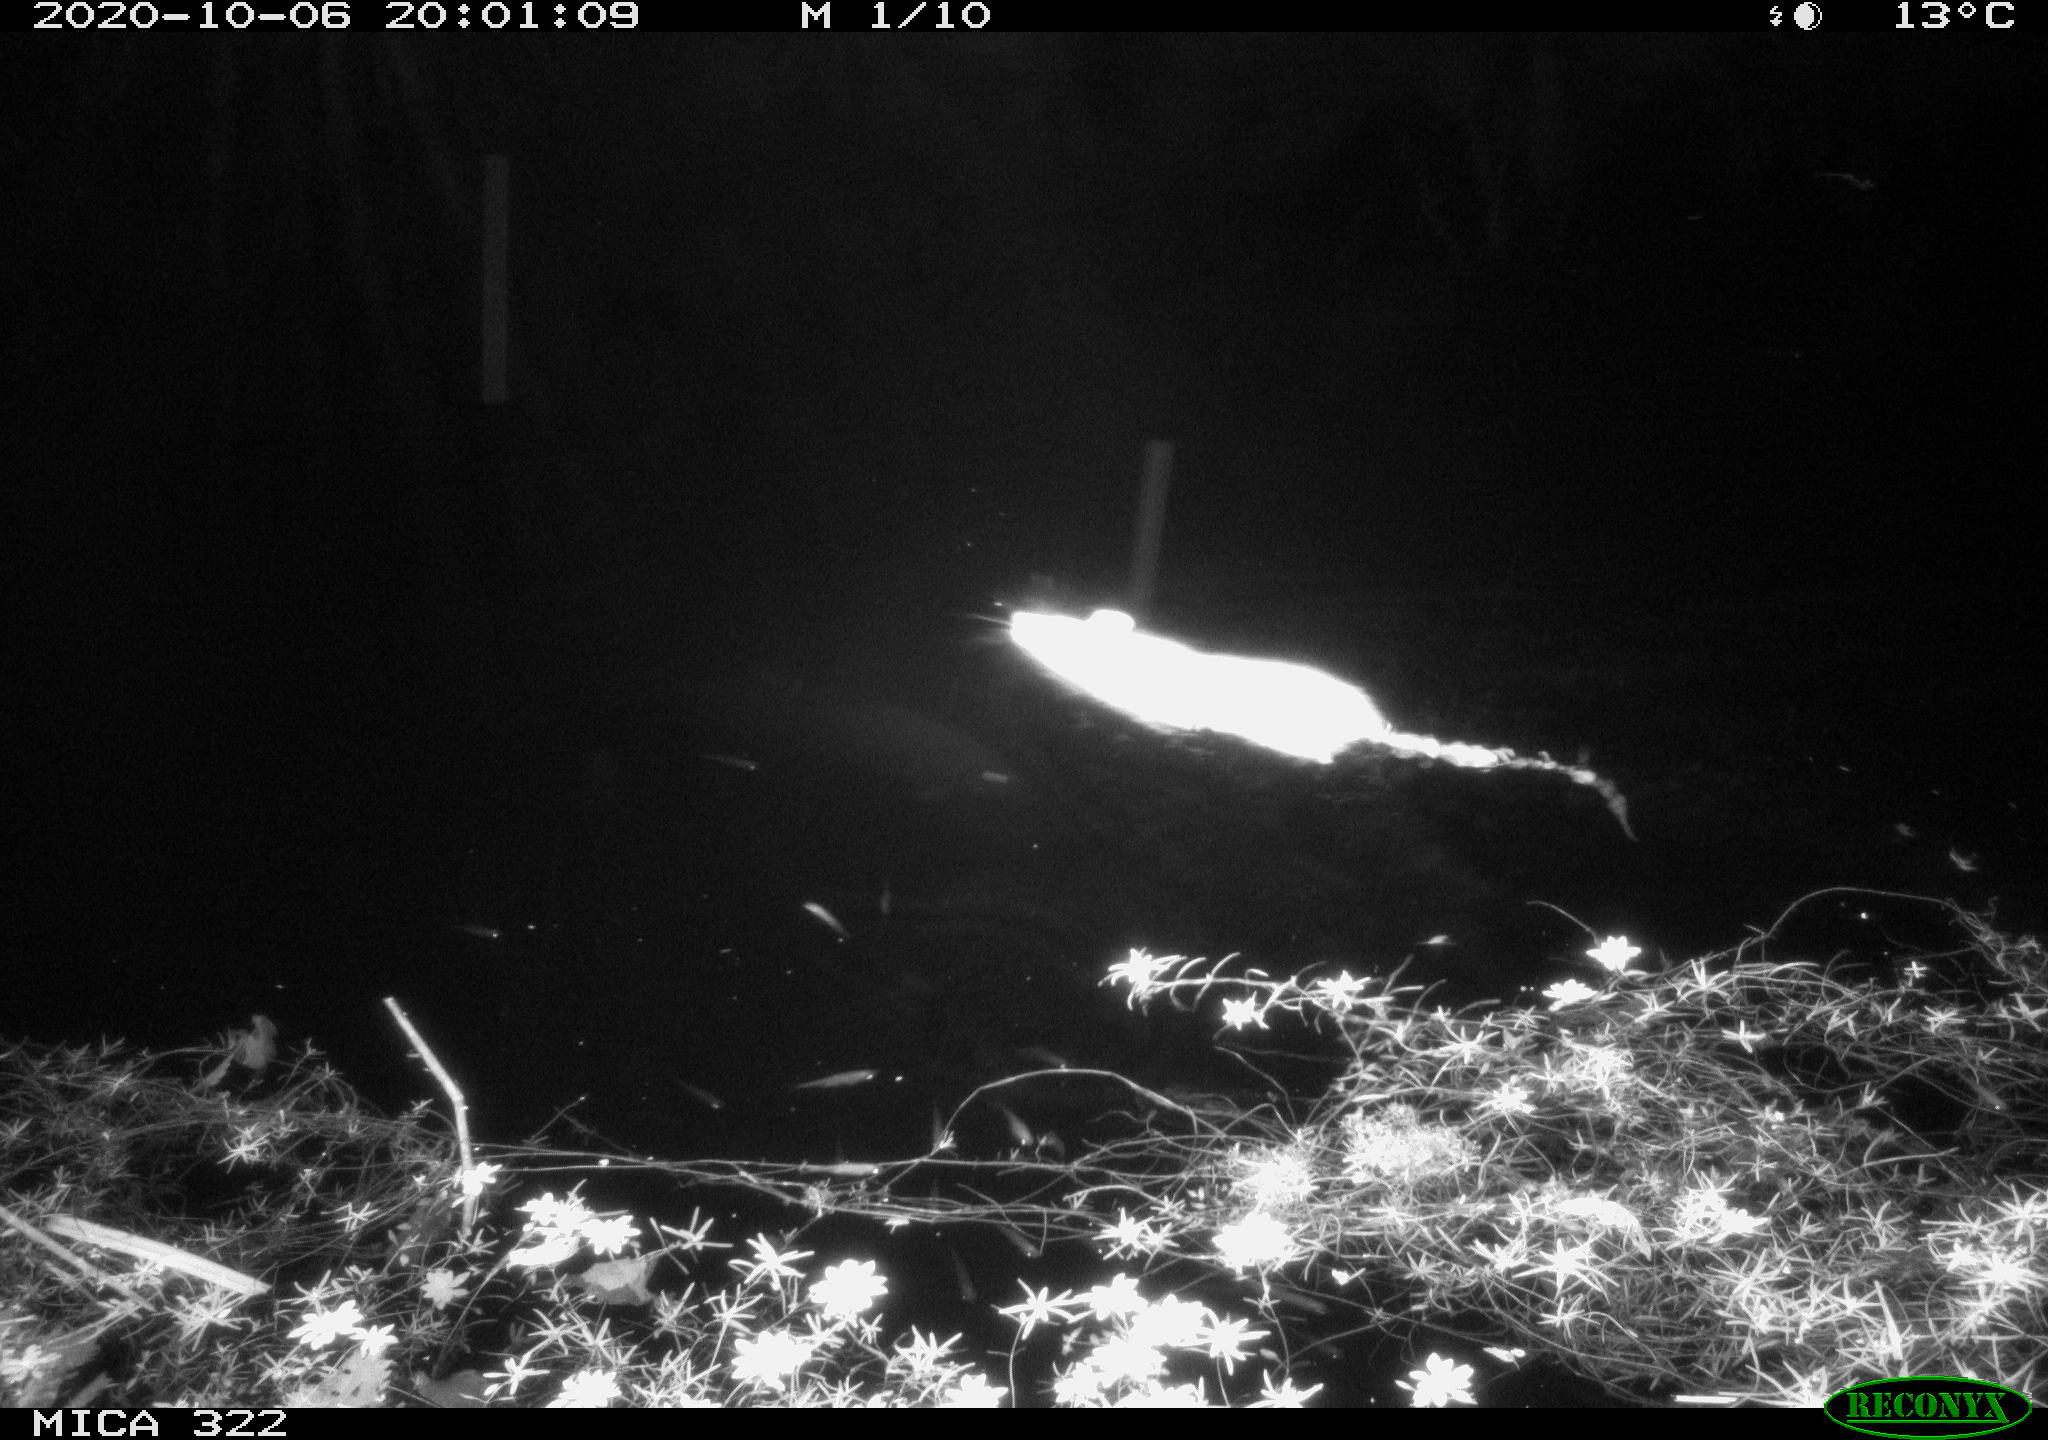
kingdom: Animalia
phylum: Chordata
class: Mammalia
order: Rodentia
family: Muridae
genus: Rattus
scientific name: Rattus norvegicus
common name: Brown rat
